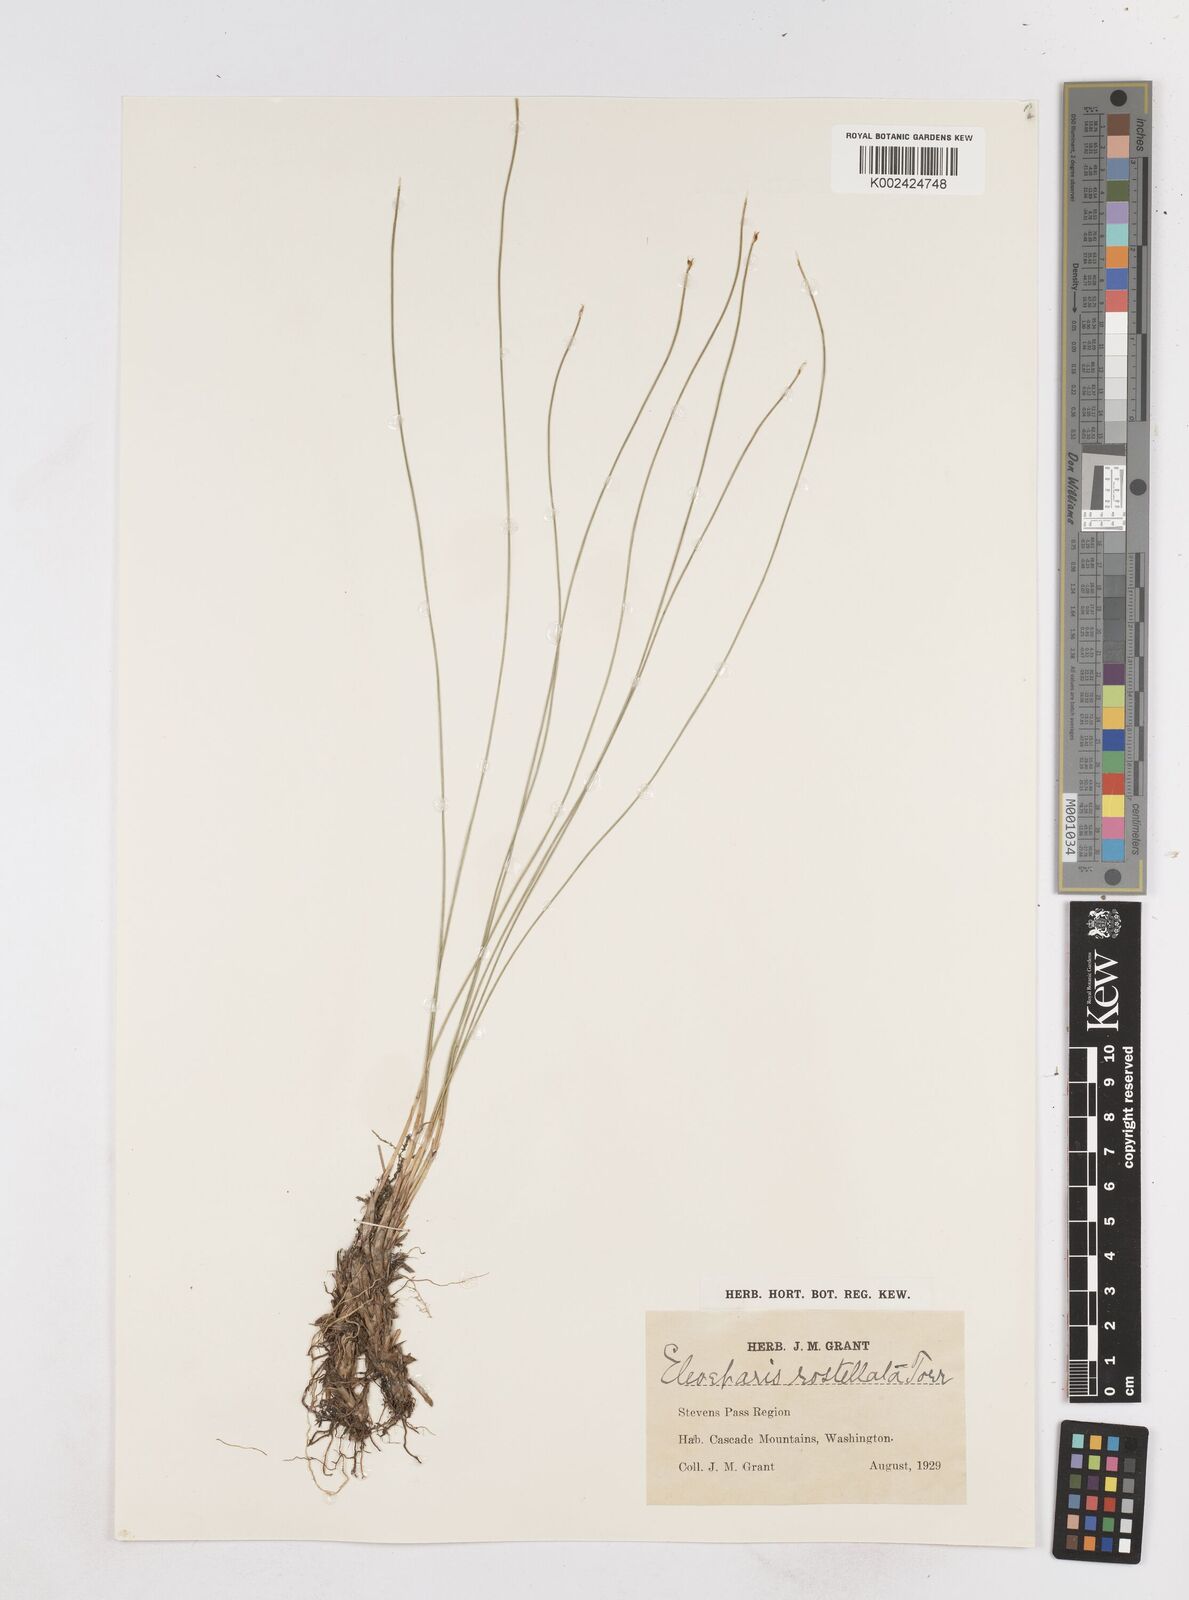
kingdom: Plantae
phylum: Tracheophyta
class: Liliopsida
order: Poales
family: Cyperaceae
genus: Eleocharis
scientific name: Eleocharis rostellata
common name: Walking sedge
